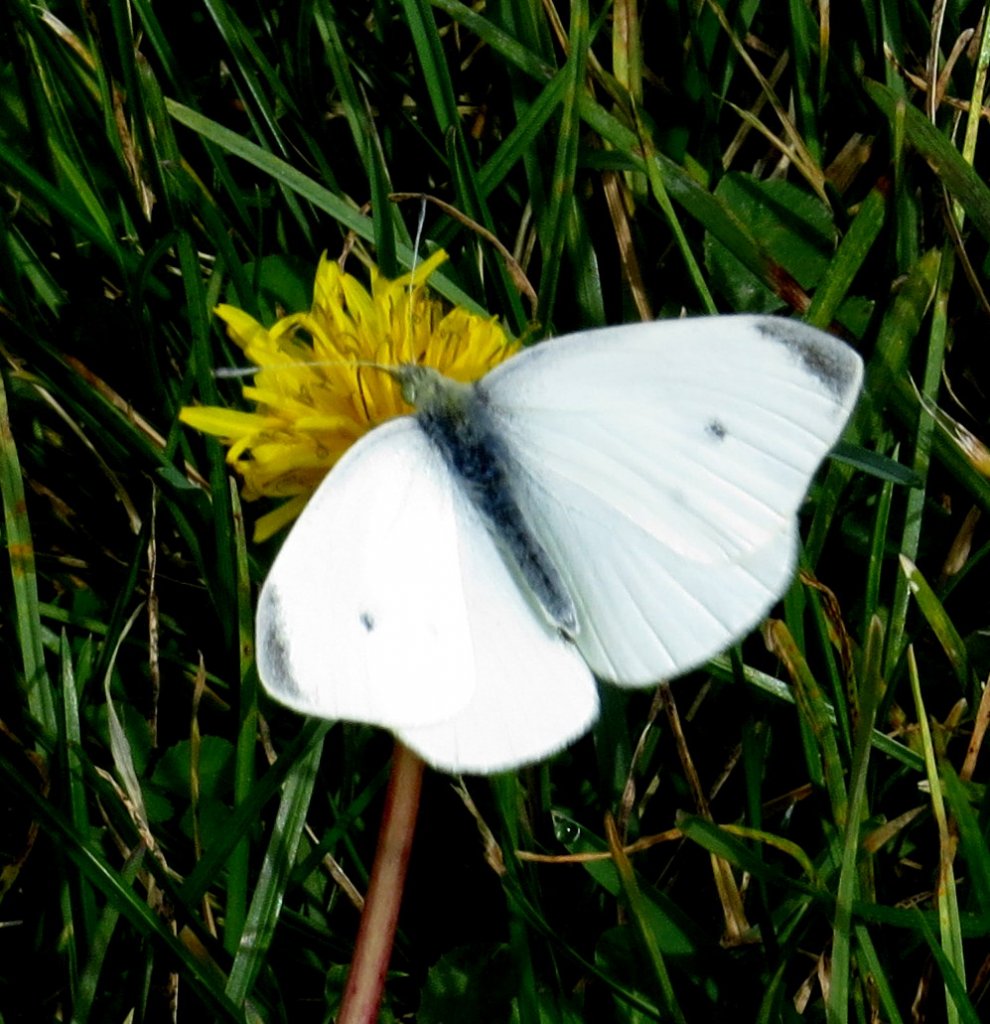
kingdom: Animalia
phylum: Arthropoda
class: Insecta
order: Lepidoptera
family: Pieridae
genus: Pieris
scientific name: Pieris rapae
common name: Cabbage White
